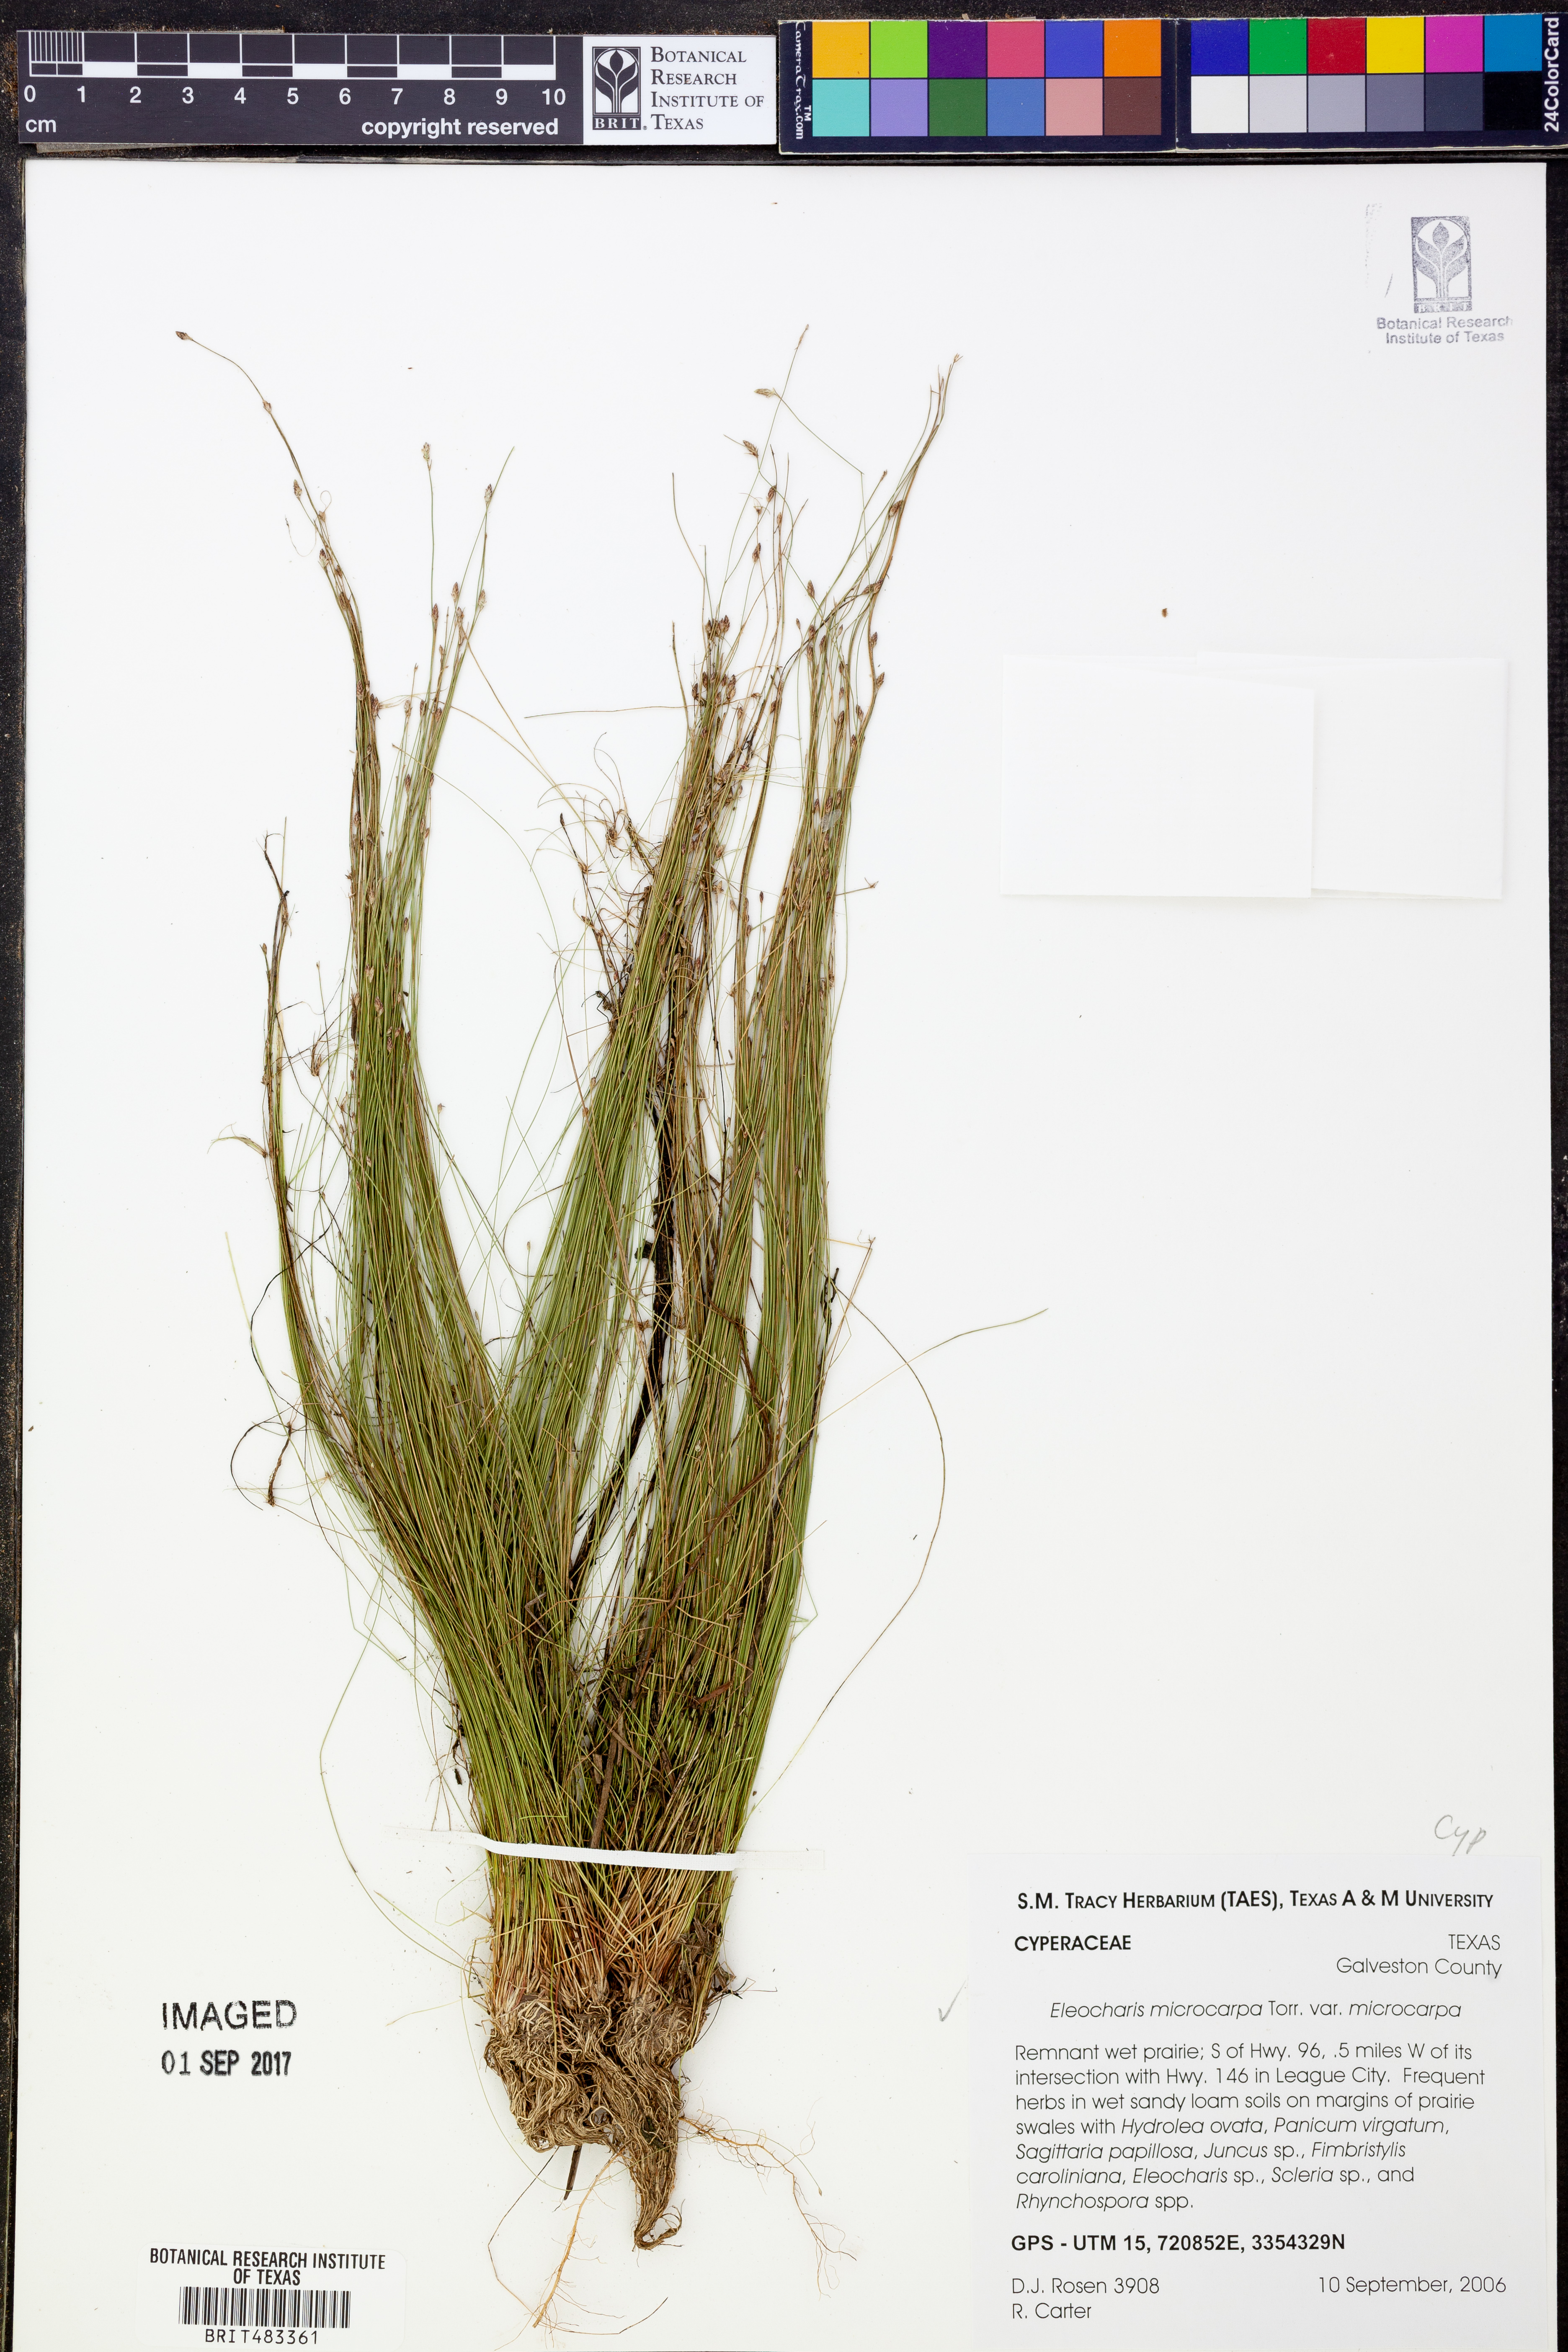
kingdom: Plantae
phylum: Tracheophyta
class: Liliopsida
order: Poales
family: Cyperaceae
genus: Eleocharis
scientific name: Eleocharis microcarpa
